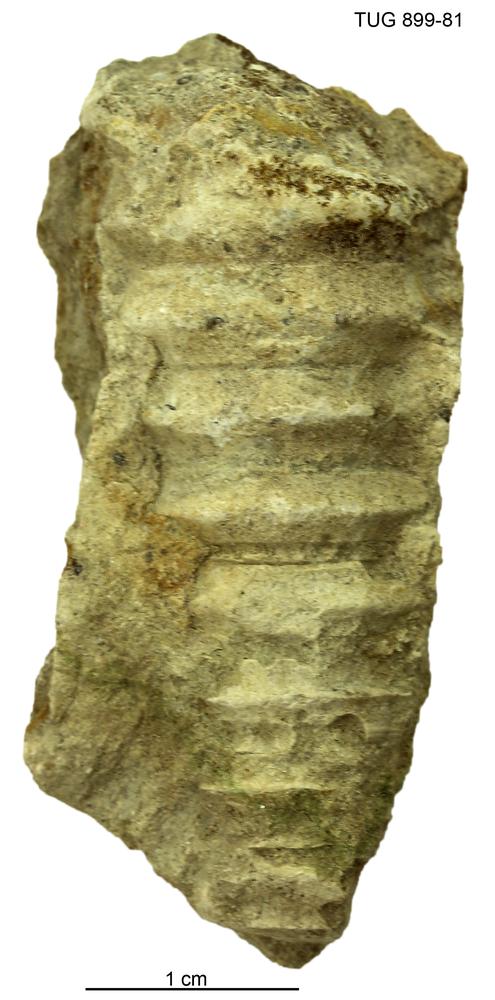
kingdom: Animalia
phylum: Mollusca
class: Cephalopoda
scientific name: Cephalopoda
